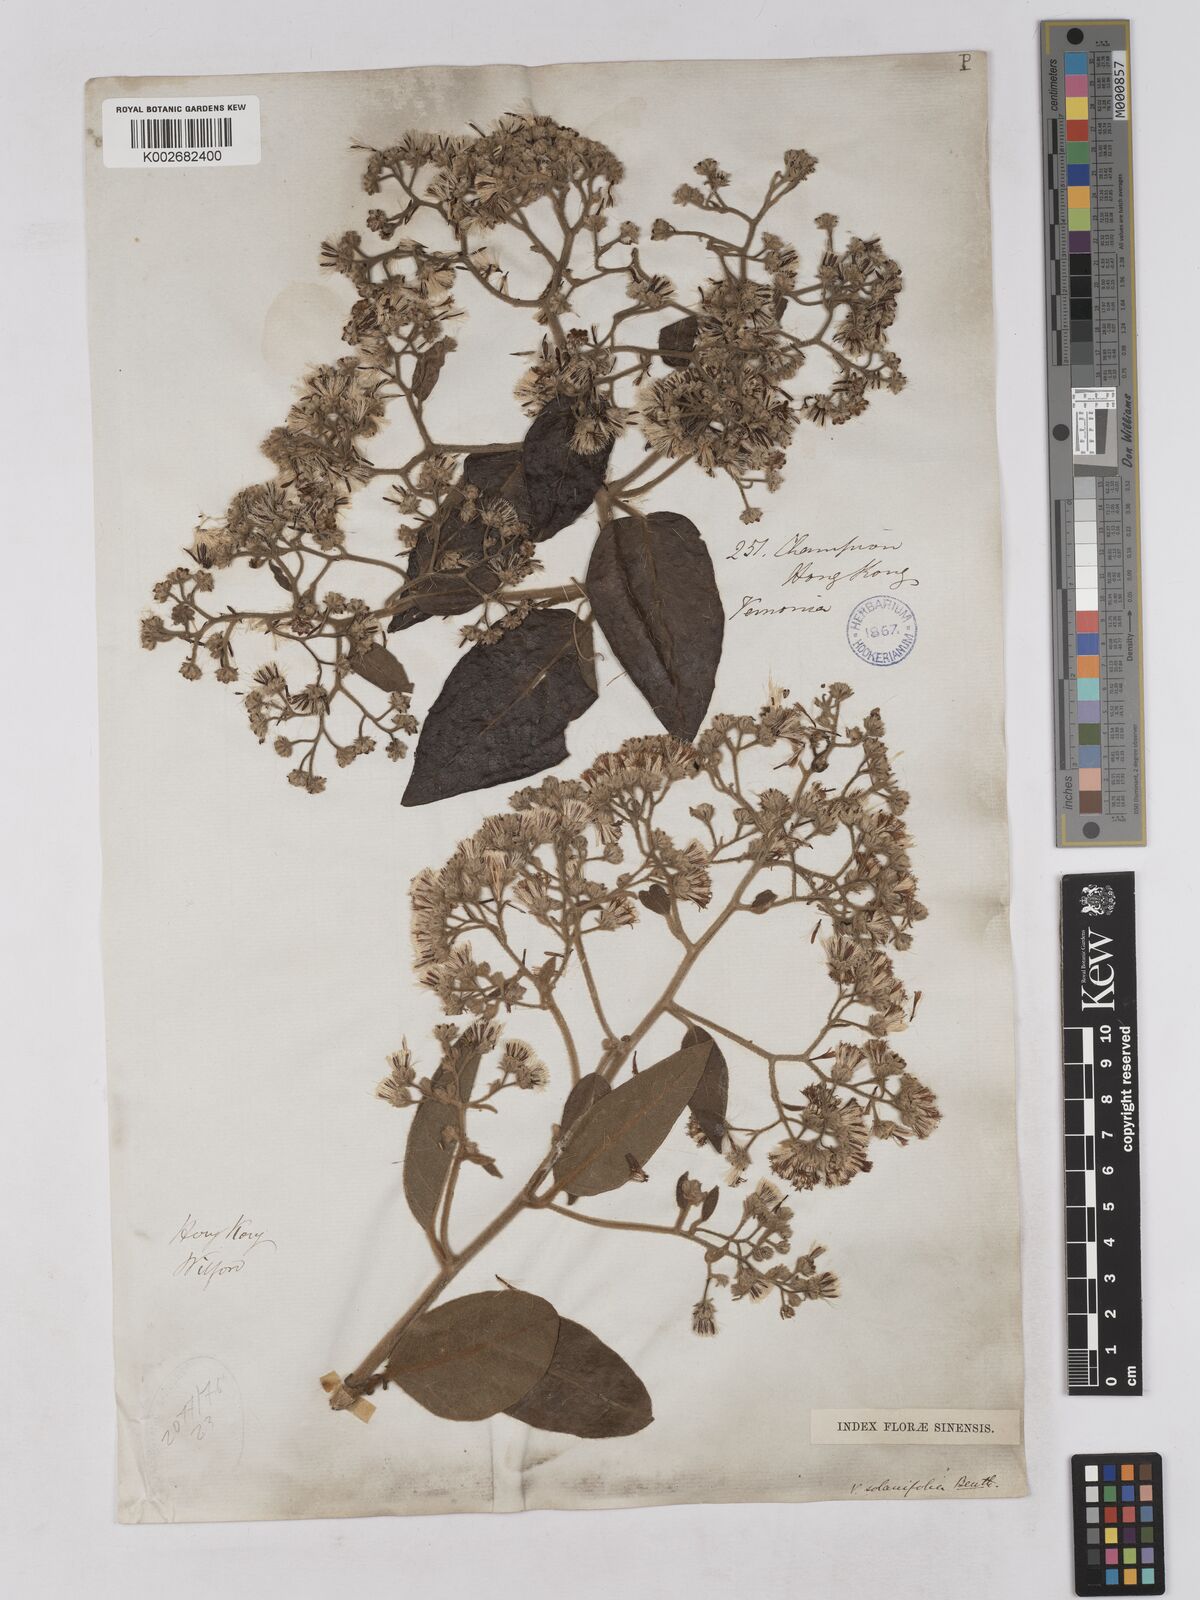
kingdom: Plantae
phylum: Tracheophyta
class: Magnoliopsida
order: Asterales
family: Asteraceae
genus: Strobocalyx
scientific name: Strobocalyx solanifolia
